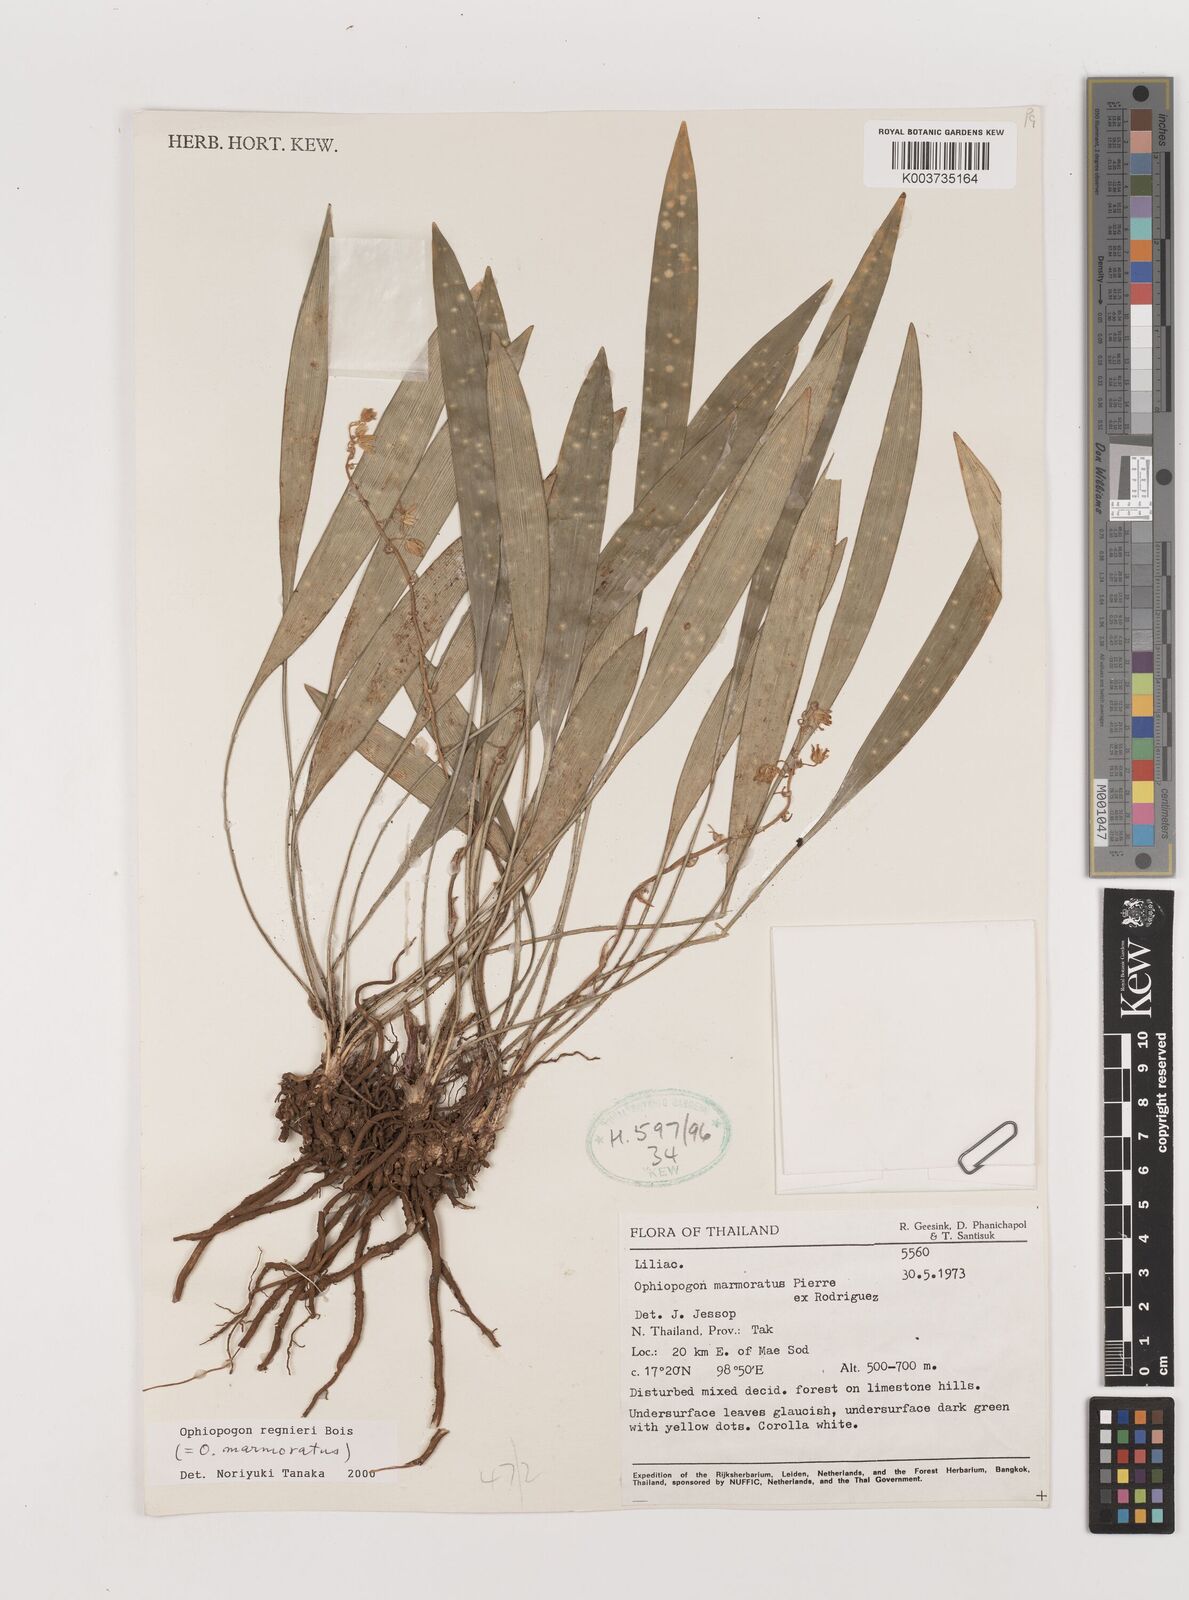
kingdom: Plantae
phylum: Tracheophyta
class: Liliopsida
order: Asparagales
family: Asparagaceae
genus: Ophiopogon
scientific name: Ophiopogon regnieri
